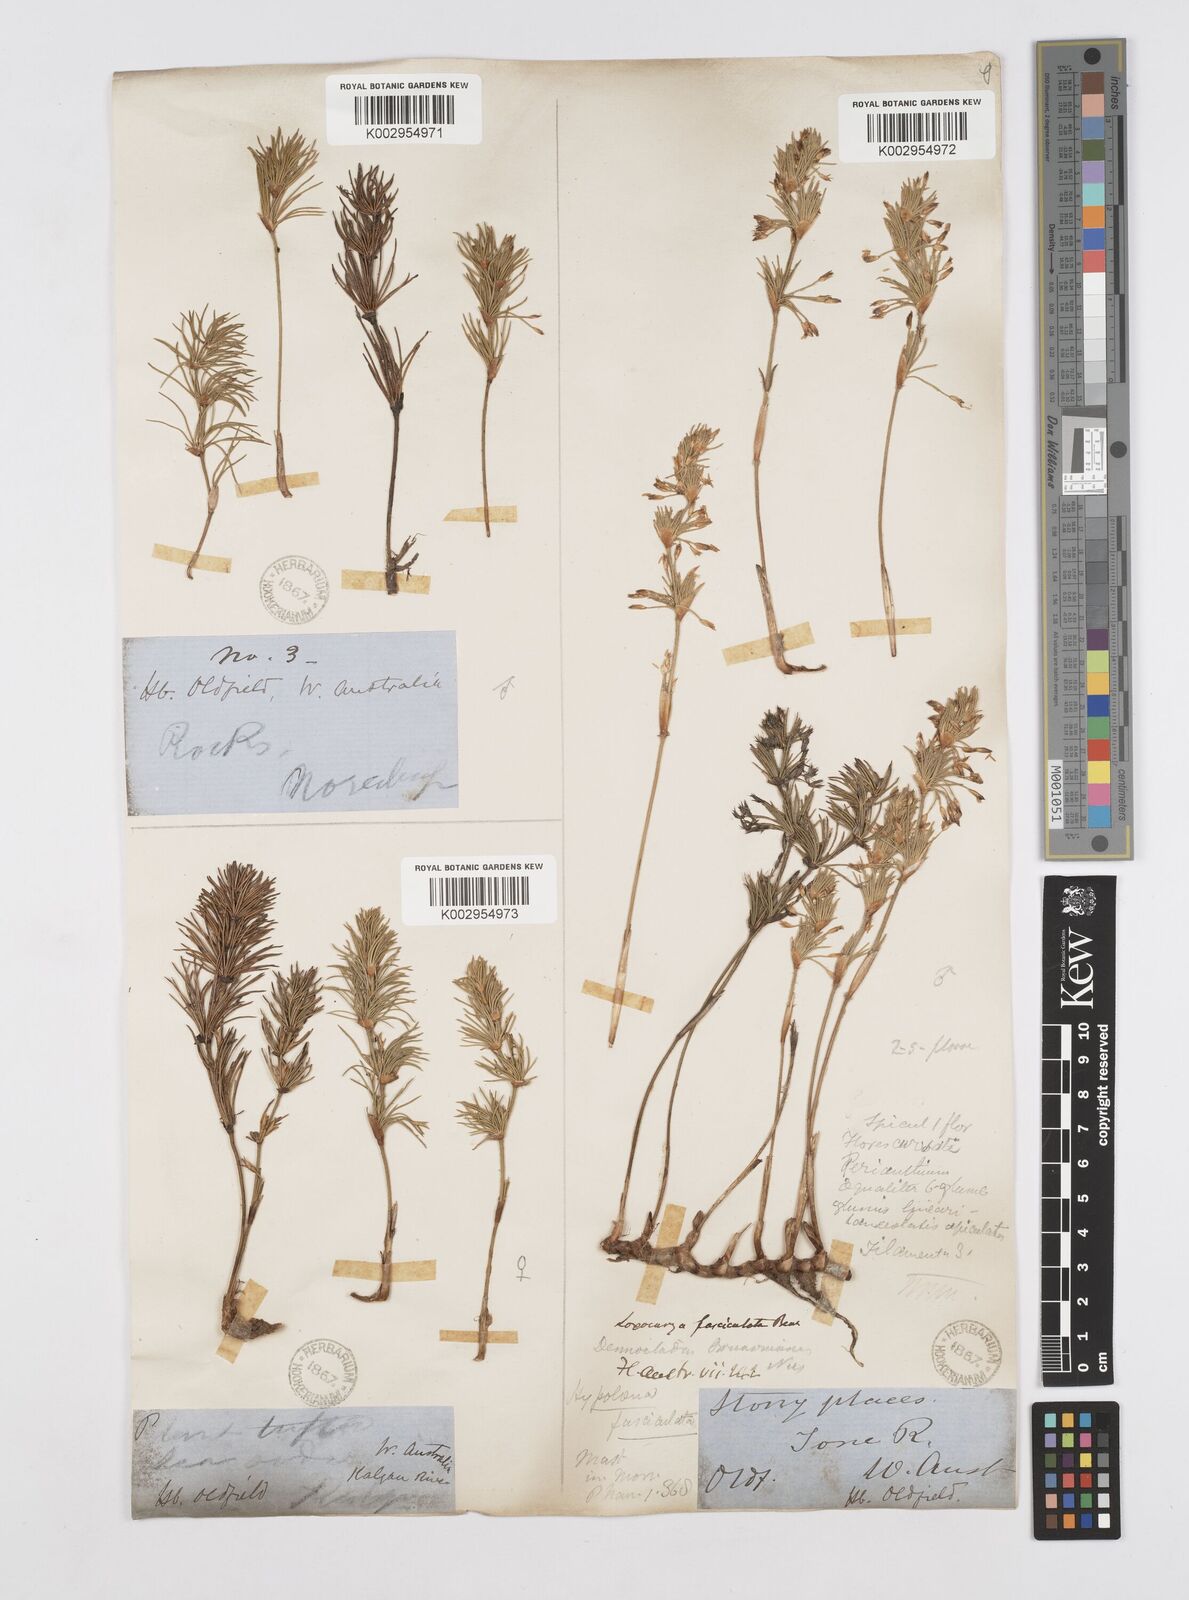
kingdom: Plantae
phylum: Tracheophyta
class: Liliopsida
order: Poales
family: Restionaceae
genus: Desmocladus
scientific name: Desmocladus fasciculatus
